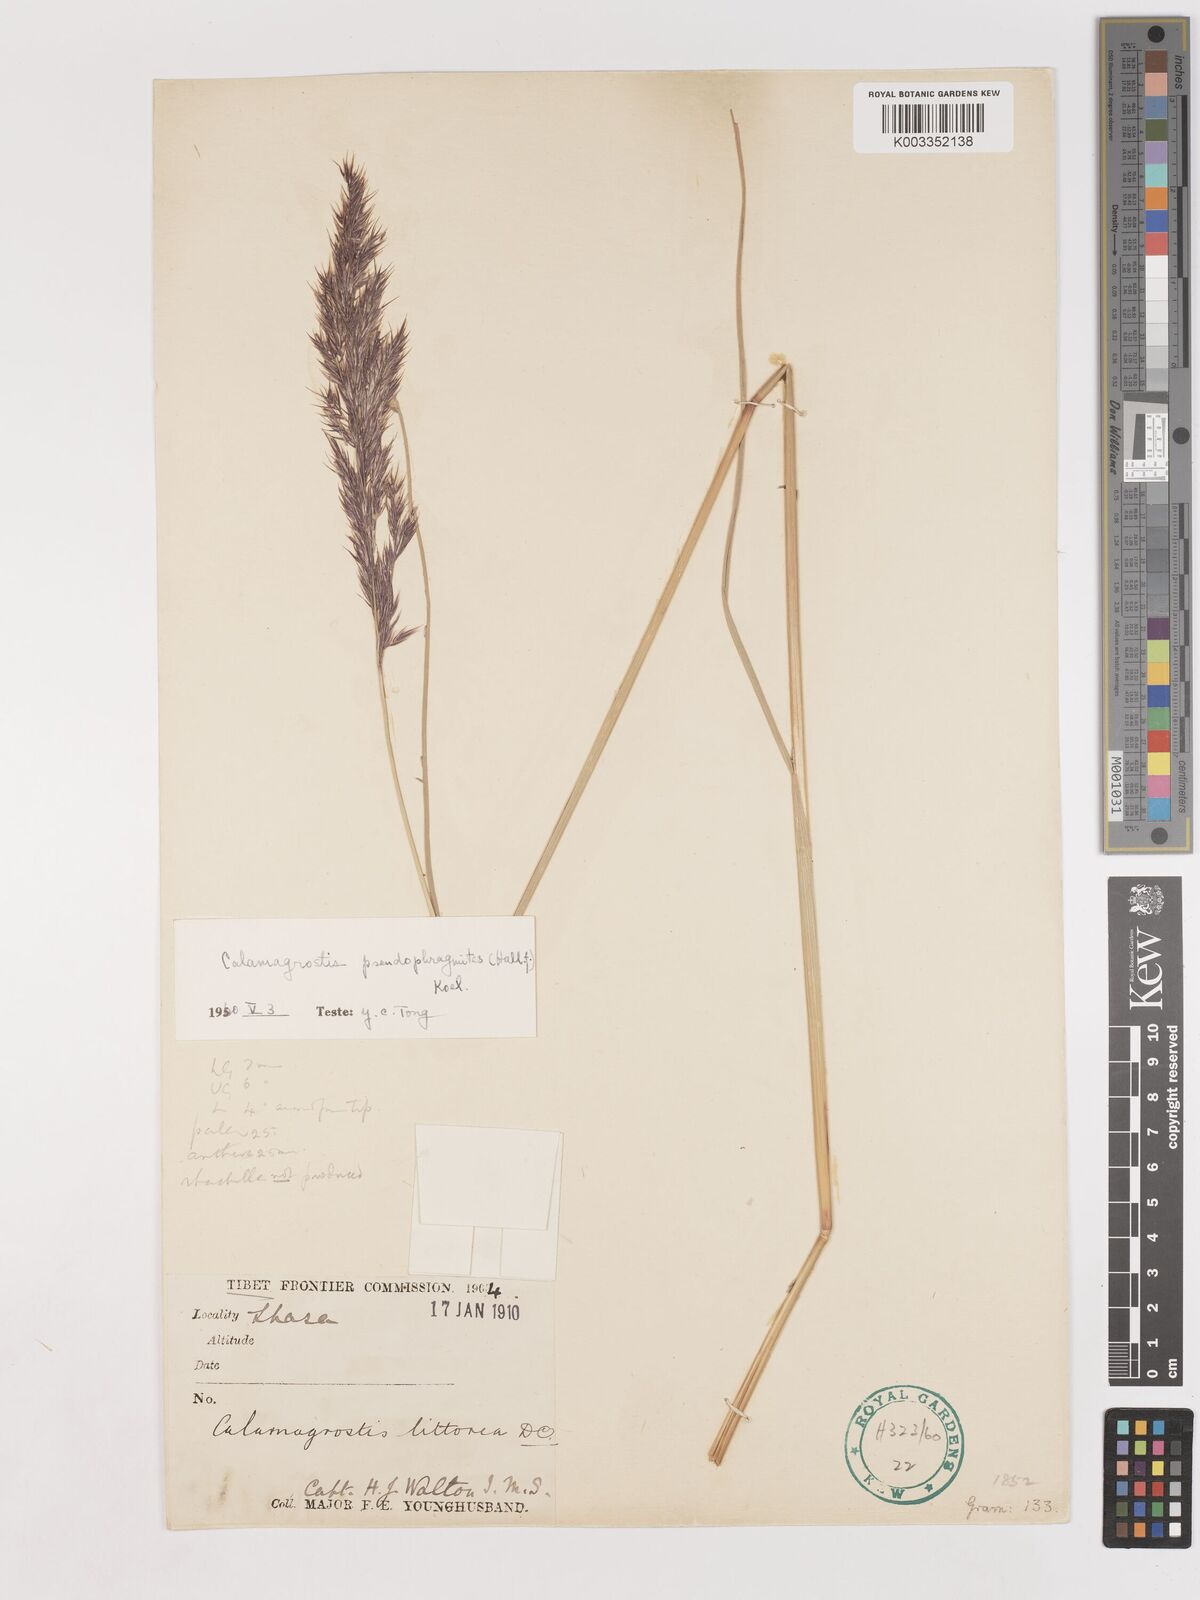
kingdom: Plantae
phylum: Tracheophyta
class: Liliopsida
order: Poales
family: Poaceae
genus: Calamagrostis
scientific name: Calamagrostis pseudophragmites
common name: Coastal small-reed
